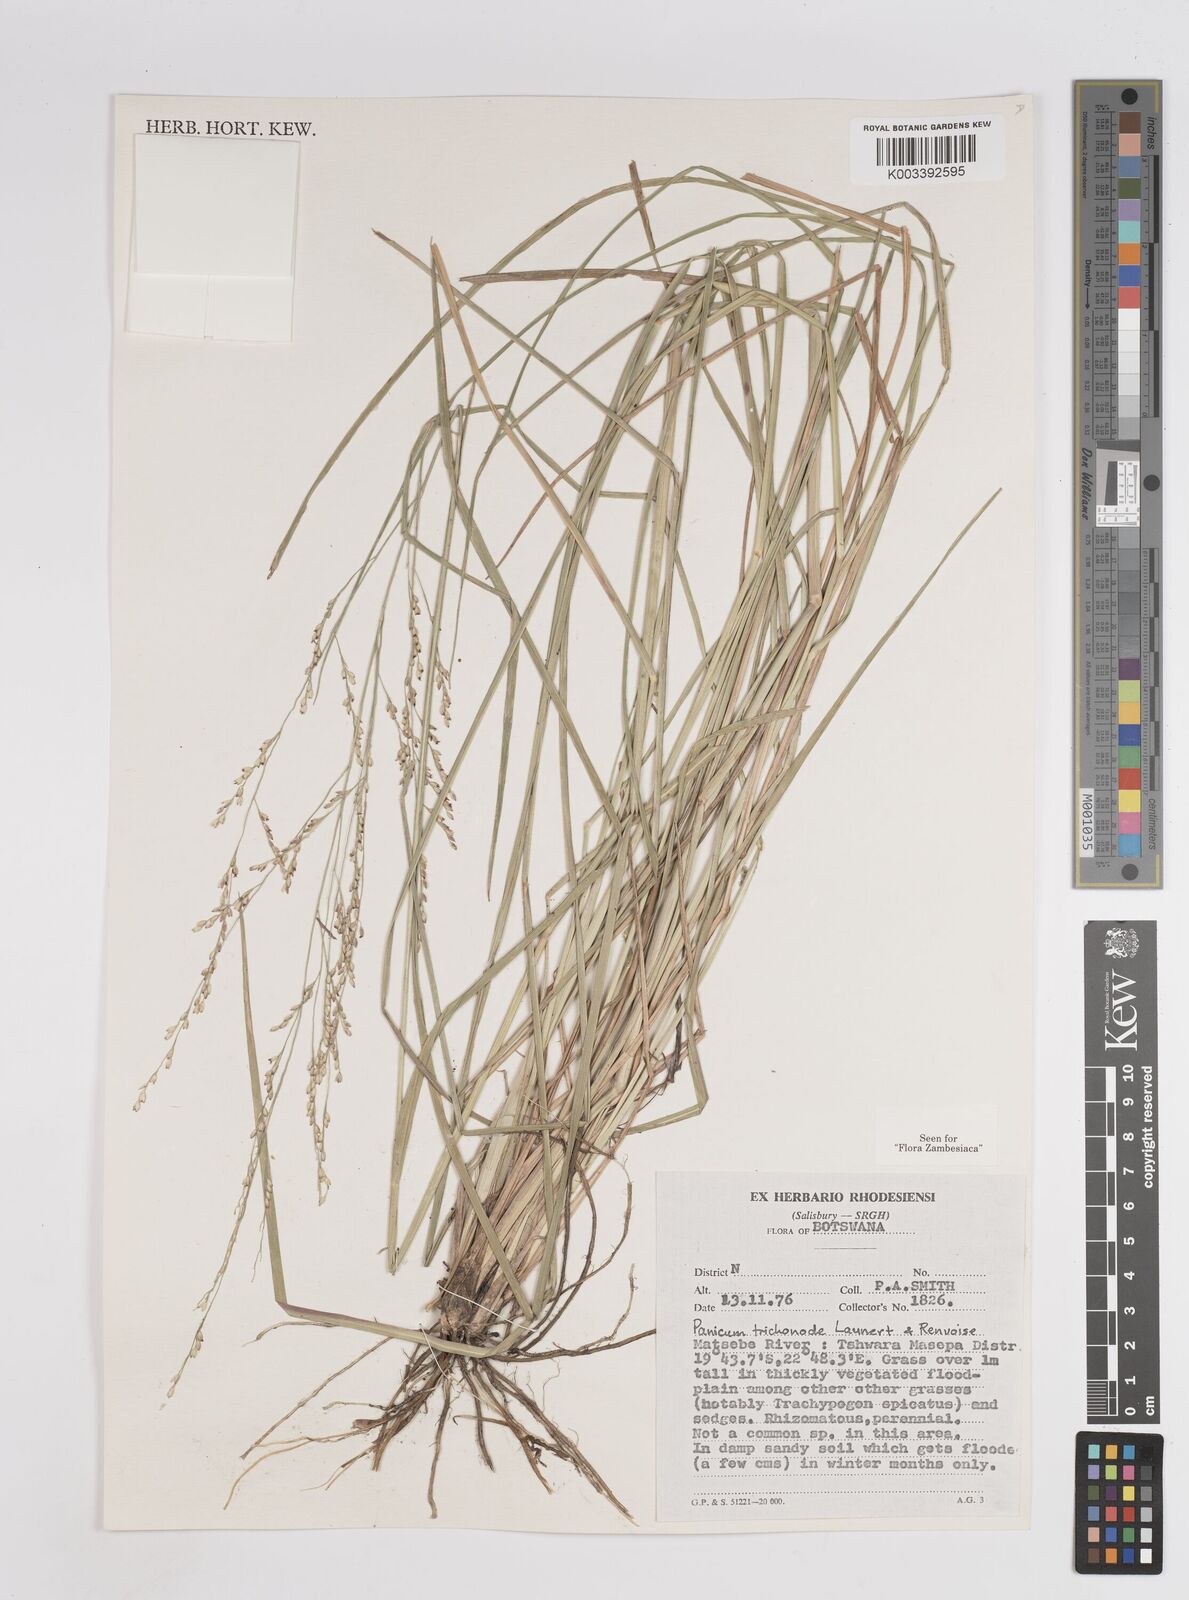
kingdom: Plantae
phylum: Tracheophyta
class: Liliopsida
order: Poales
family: Poaceae
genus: Panicum
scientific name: Panicum trichonode
